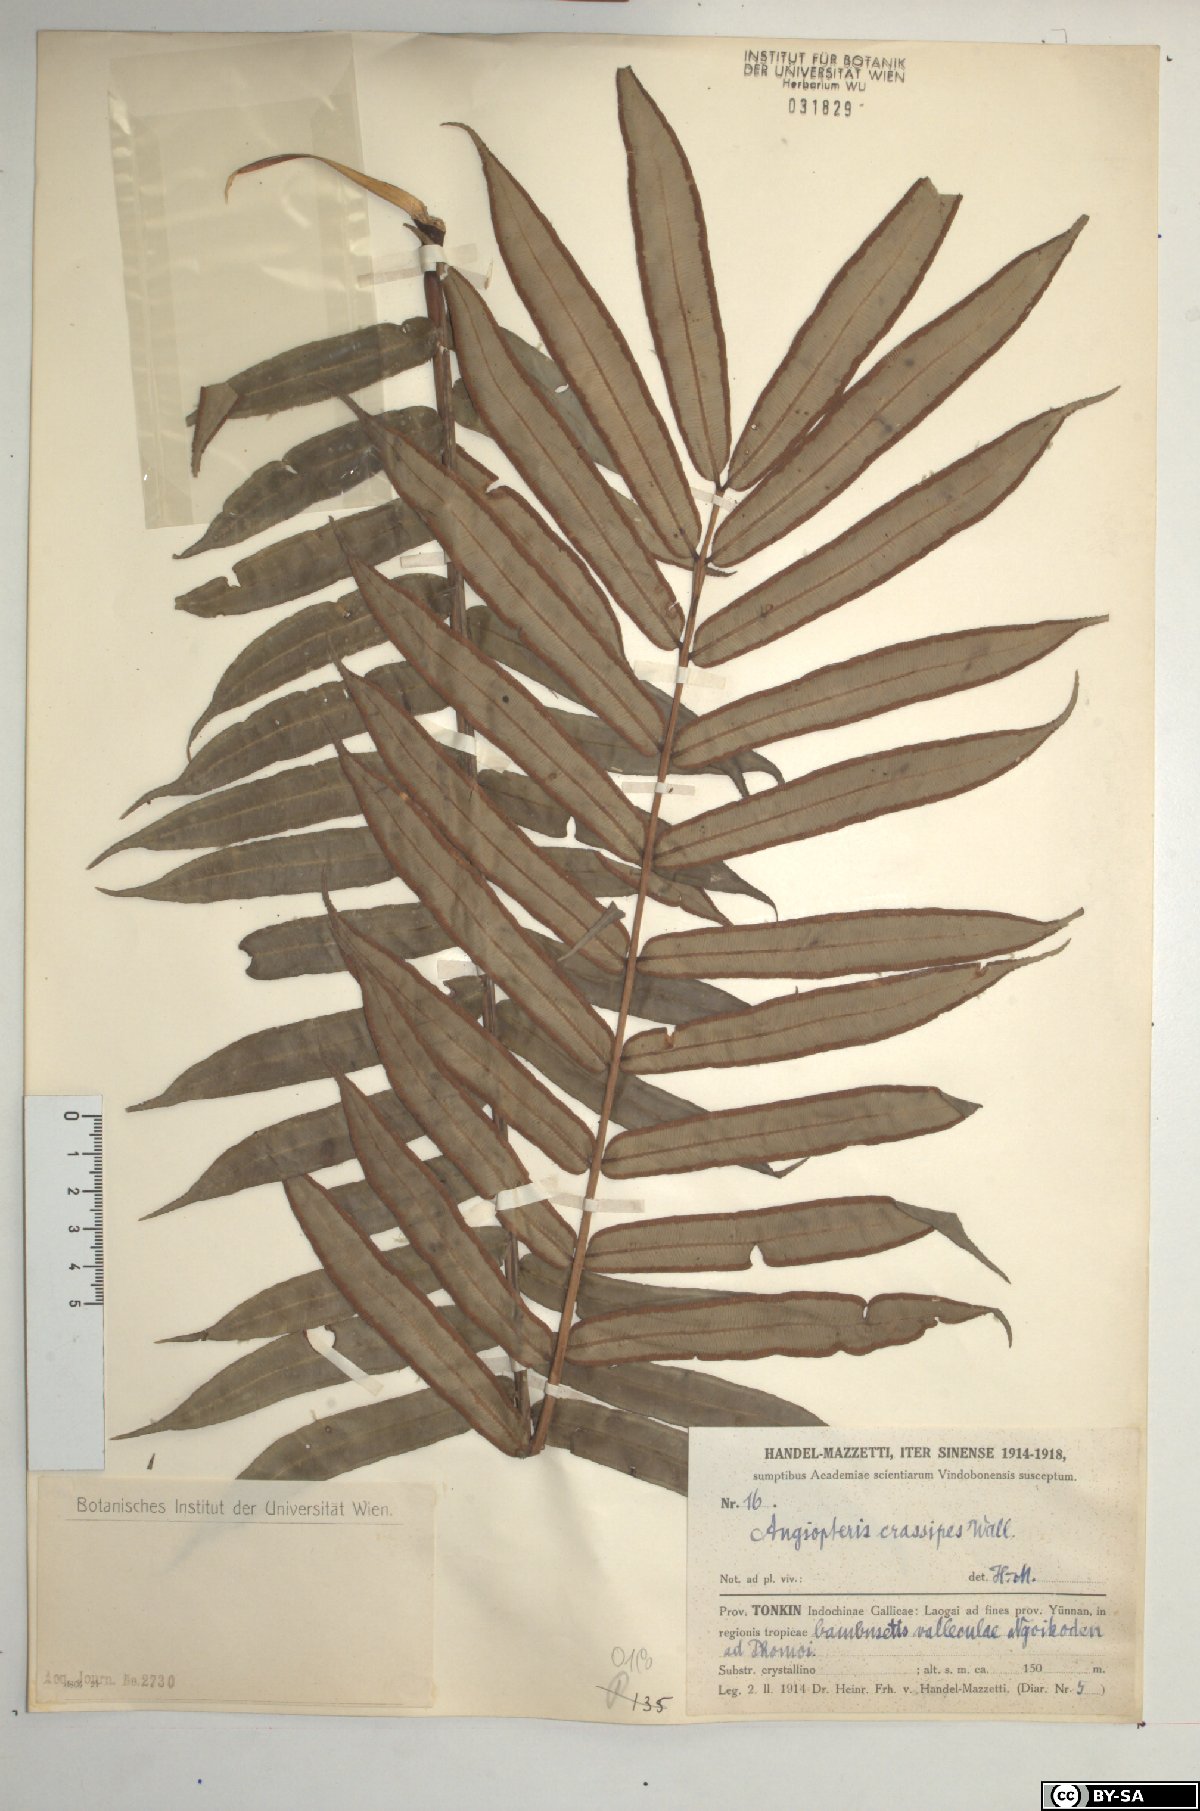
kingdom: Plantae
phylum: Tracheophyta
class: Polypodiopsida
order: Marattiales
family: Marattiaceae
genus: Angiopteris
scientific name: Angiopteris crassipes
